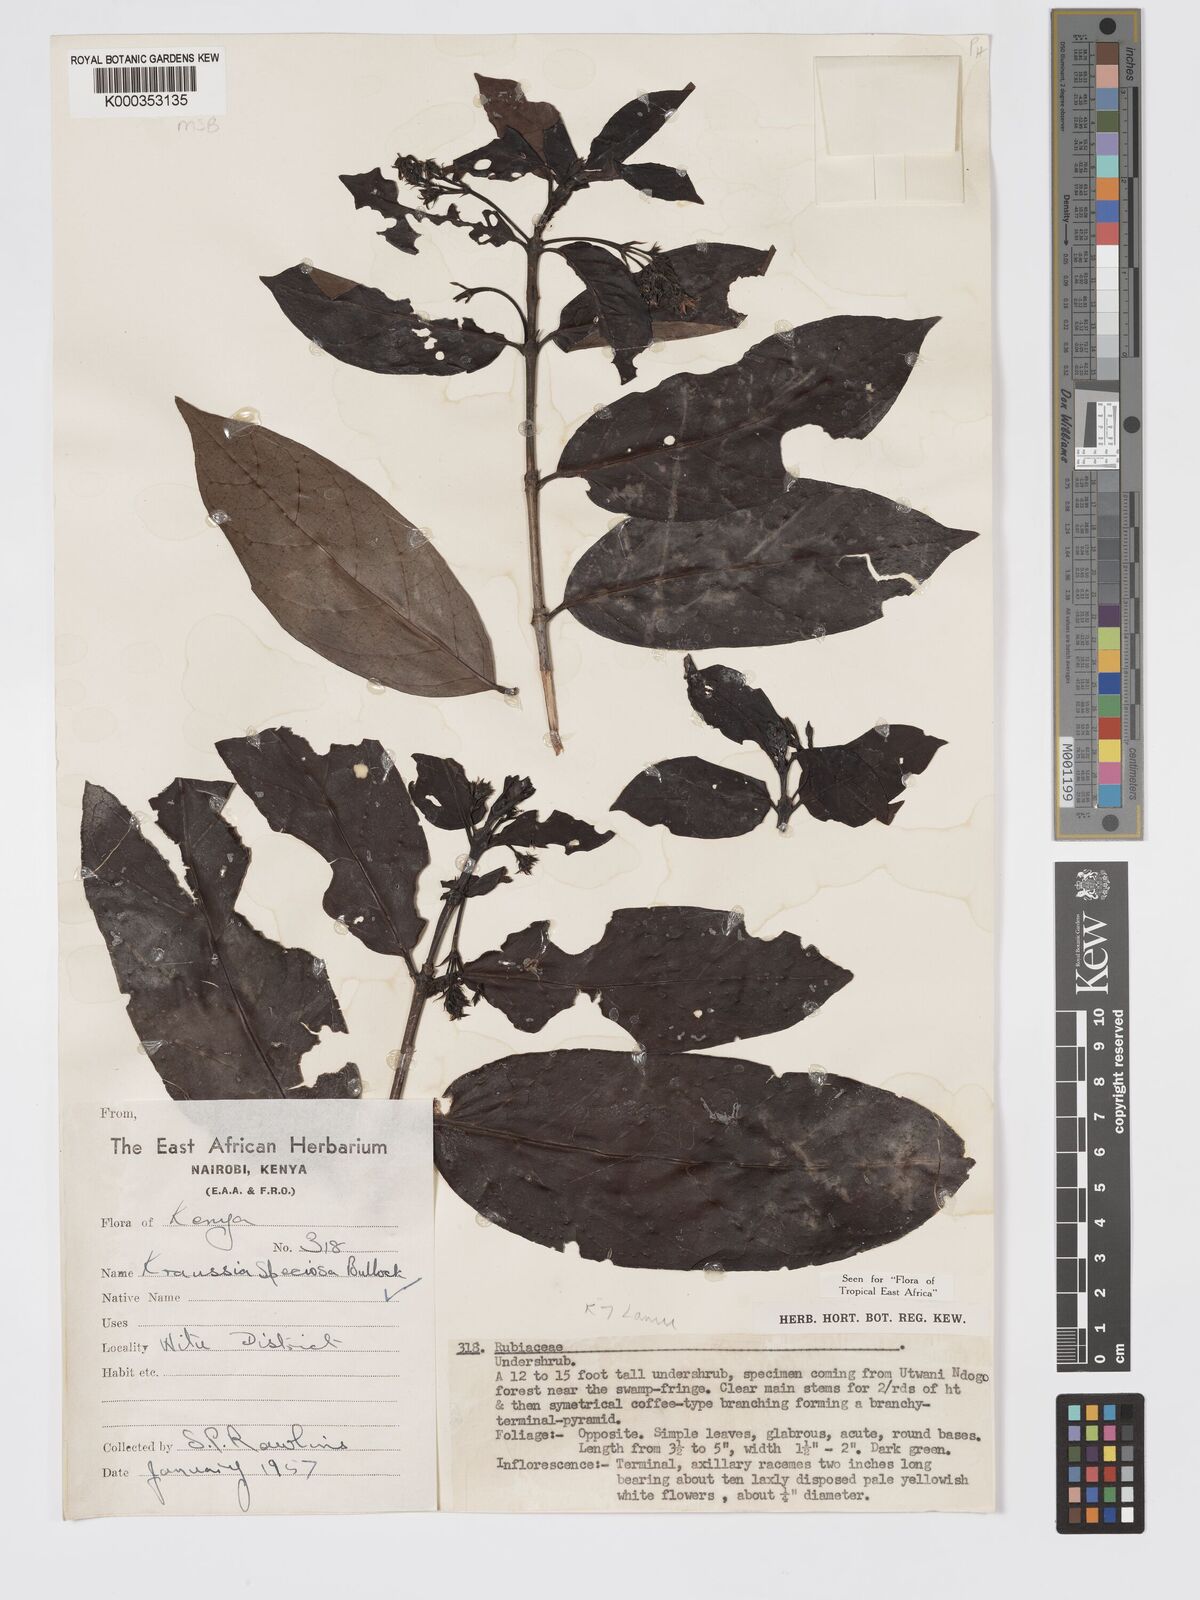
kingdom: Plantae
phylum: Tracheophyta
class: Magnoliopsida
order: Gentianales
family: Rubiaceae
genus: Kraussia
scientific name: Kraussia speciosa
